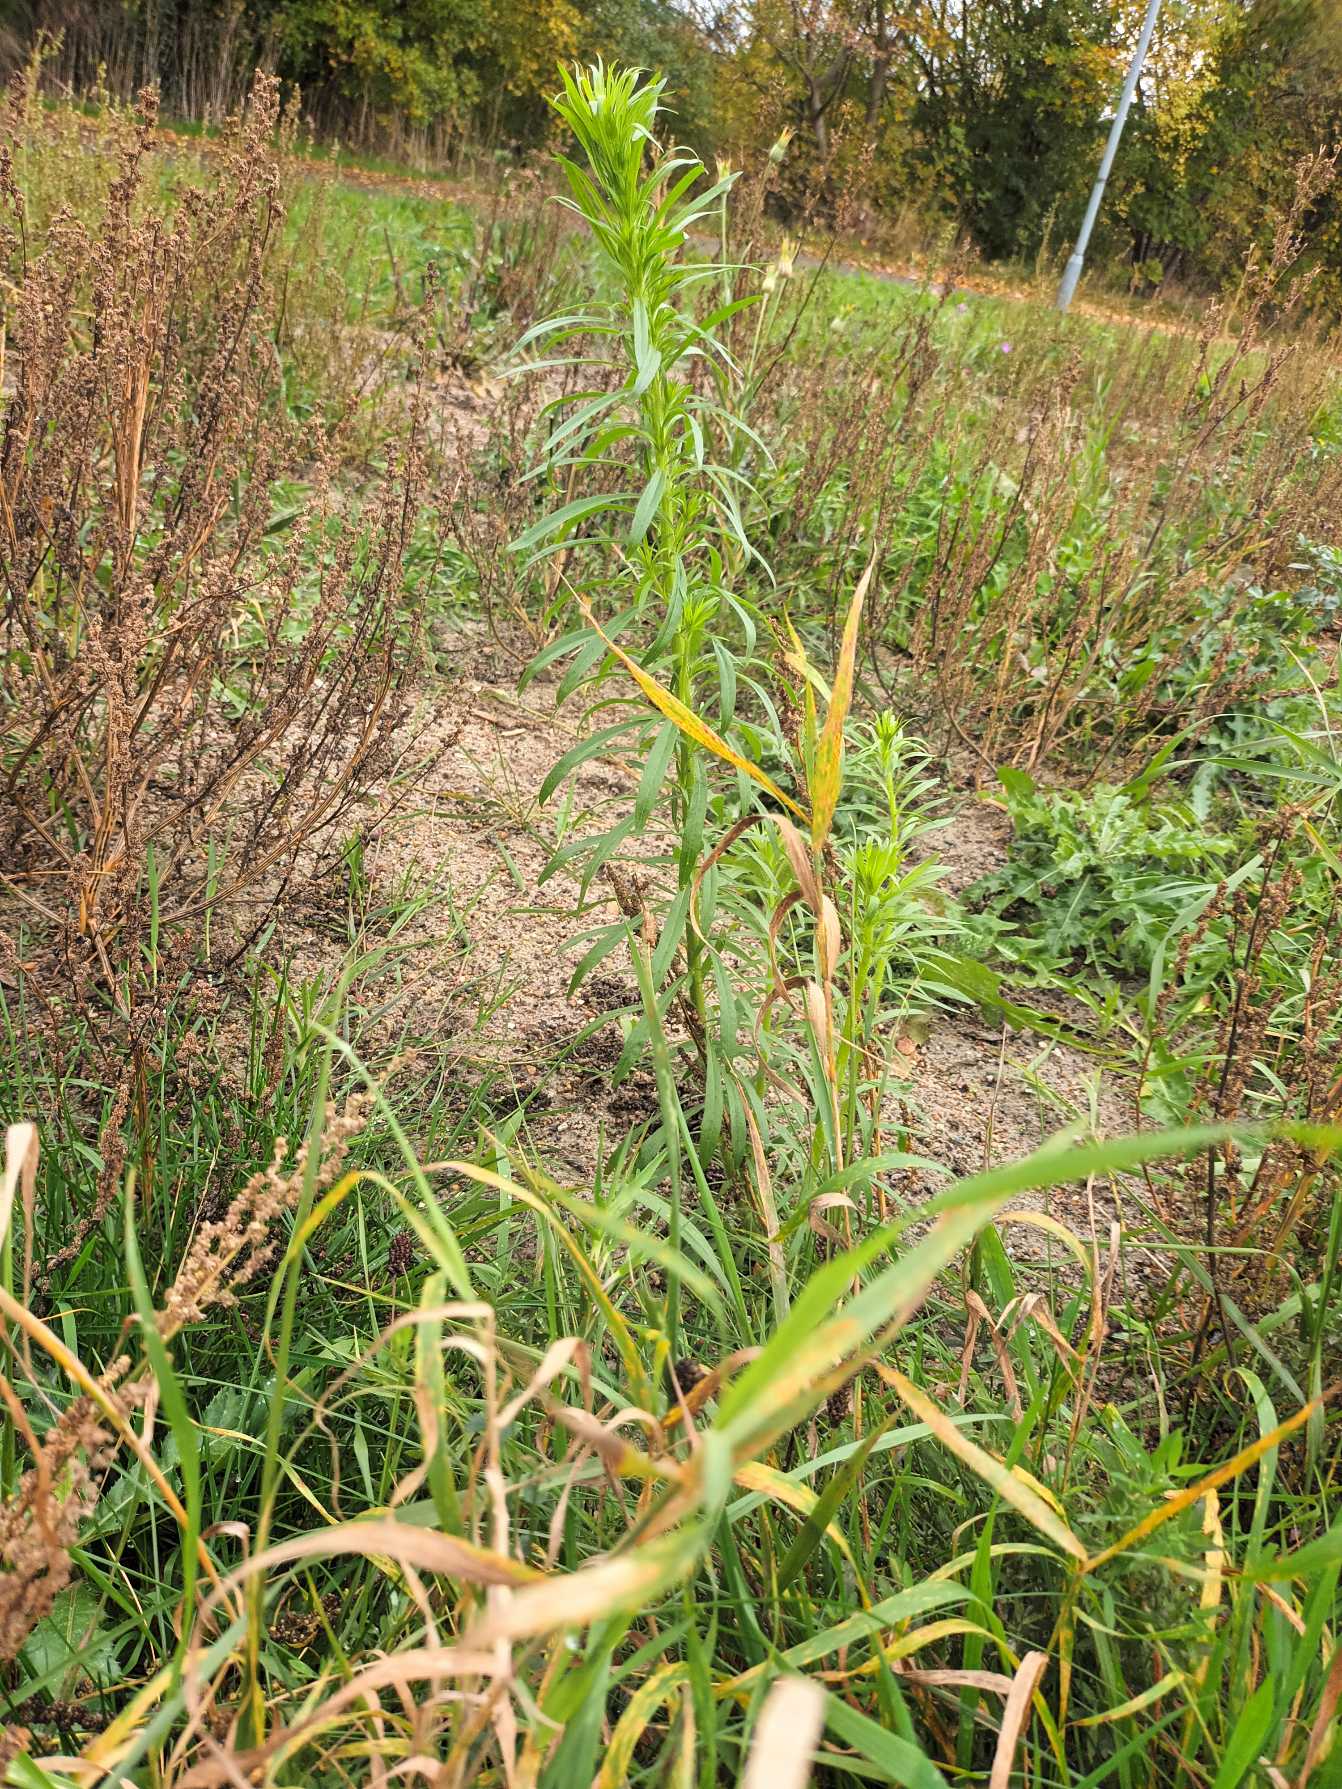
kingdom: Plantae
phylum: Tracheophyta
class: Magnoliopsida
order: Asterales
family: Asteraceae
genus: Erigeron
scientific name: Erigeron canadensis
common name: Kanadisk bakkestjerne
